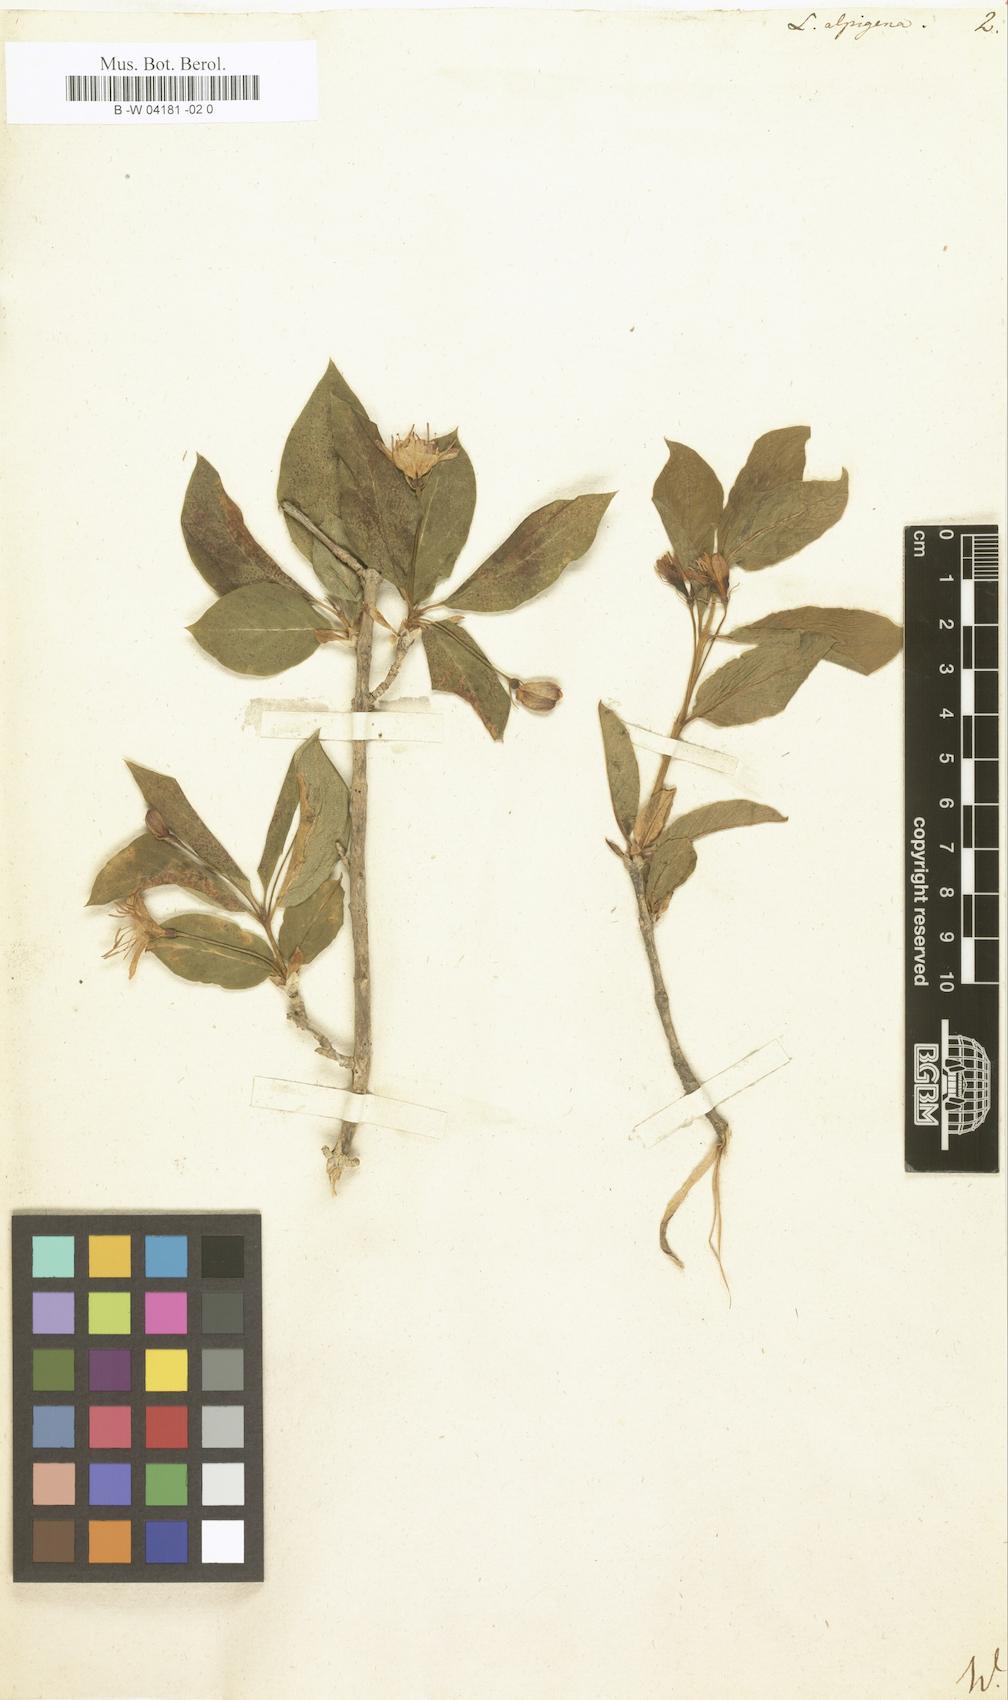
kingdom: Plantae
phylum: Tracheophyta
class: Magnoliopsida
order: Dipsacales
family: Caprifoliaceae
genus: Lonicera
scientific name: Lonicera alpigena
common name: Alpine honeysuckle
